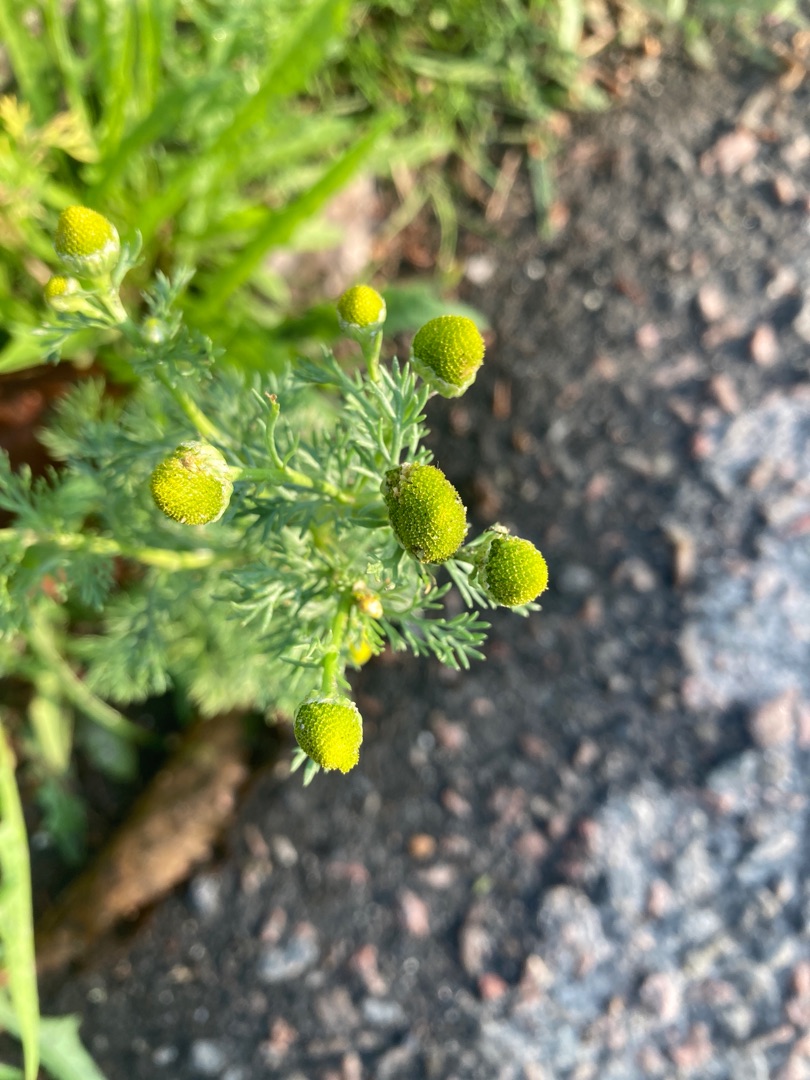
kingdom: Plantae
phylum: Tracheophyta
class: Magnoliopsida
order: Asterales
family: Asteraceae
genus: Matricaria
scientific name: Matricaria discoidea
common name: Skive-kamille
